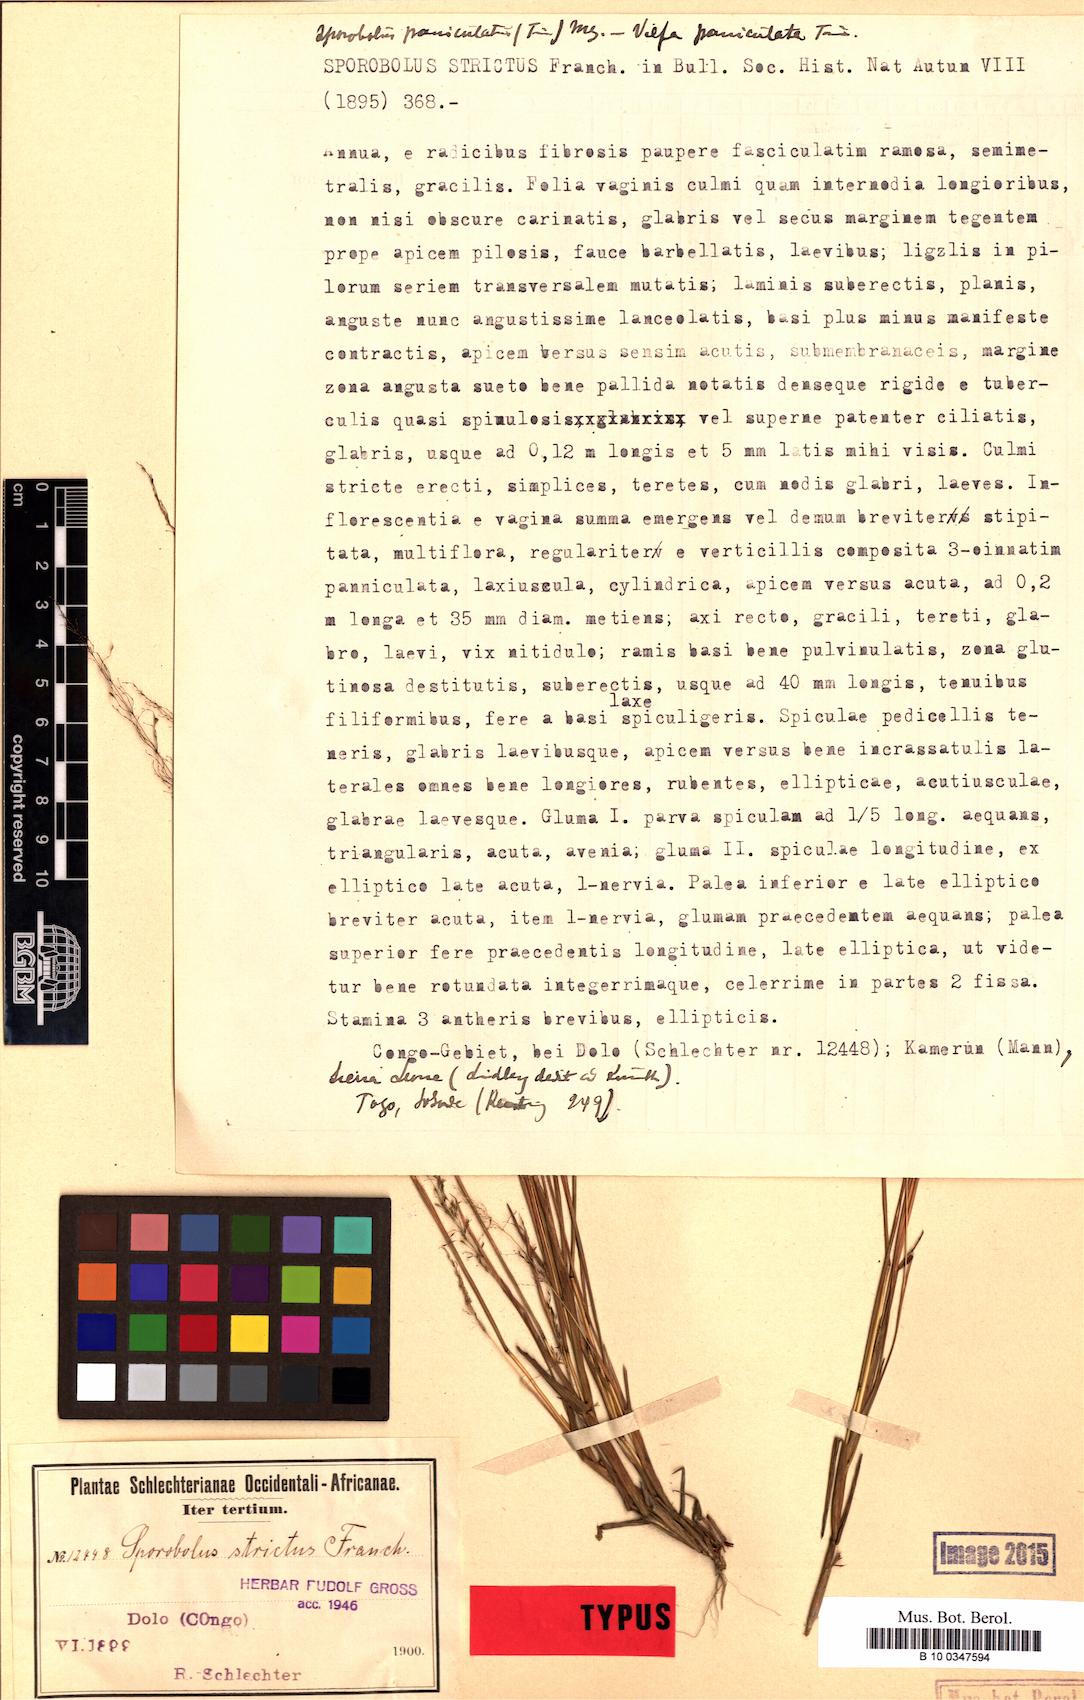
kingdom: Plantae
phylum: Tracheophyta
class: Liliopsida
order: Poales
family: Poaceae
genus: Sporobolus
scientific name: Sporobolus micranthus
